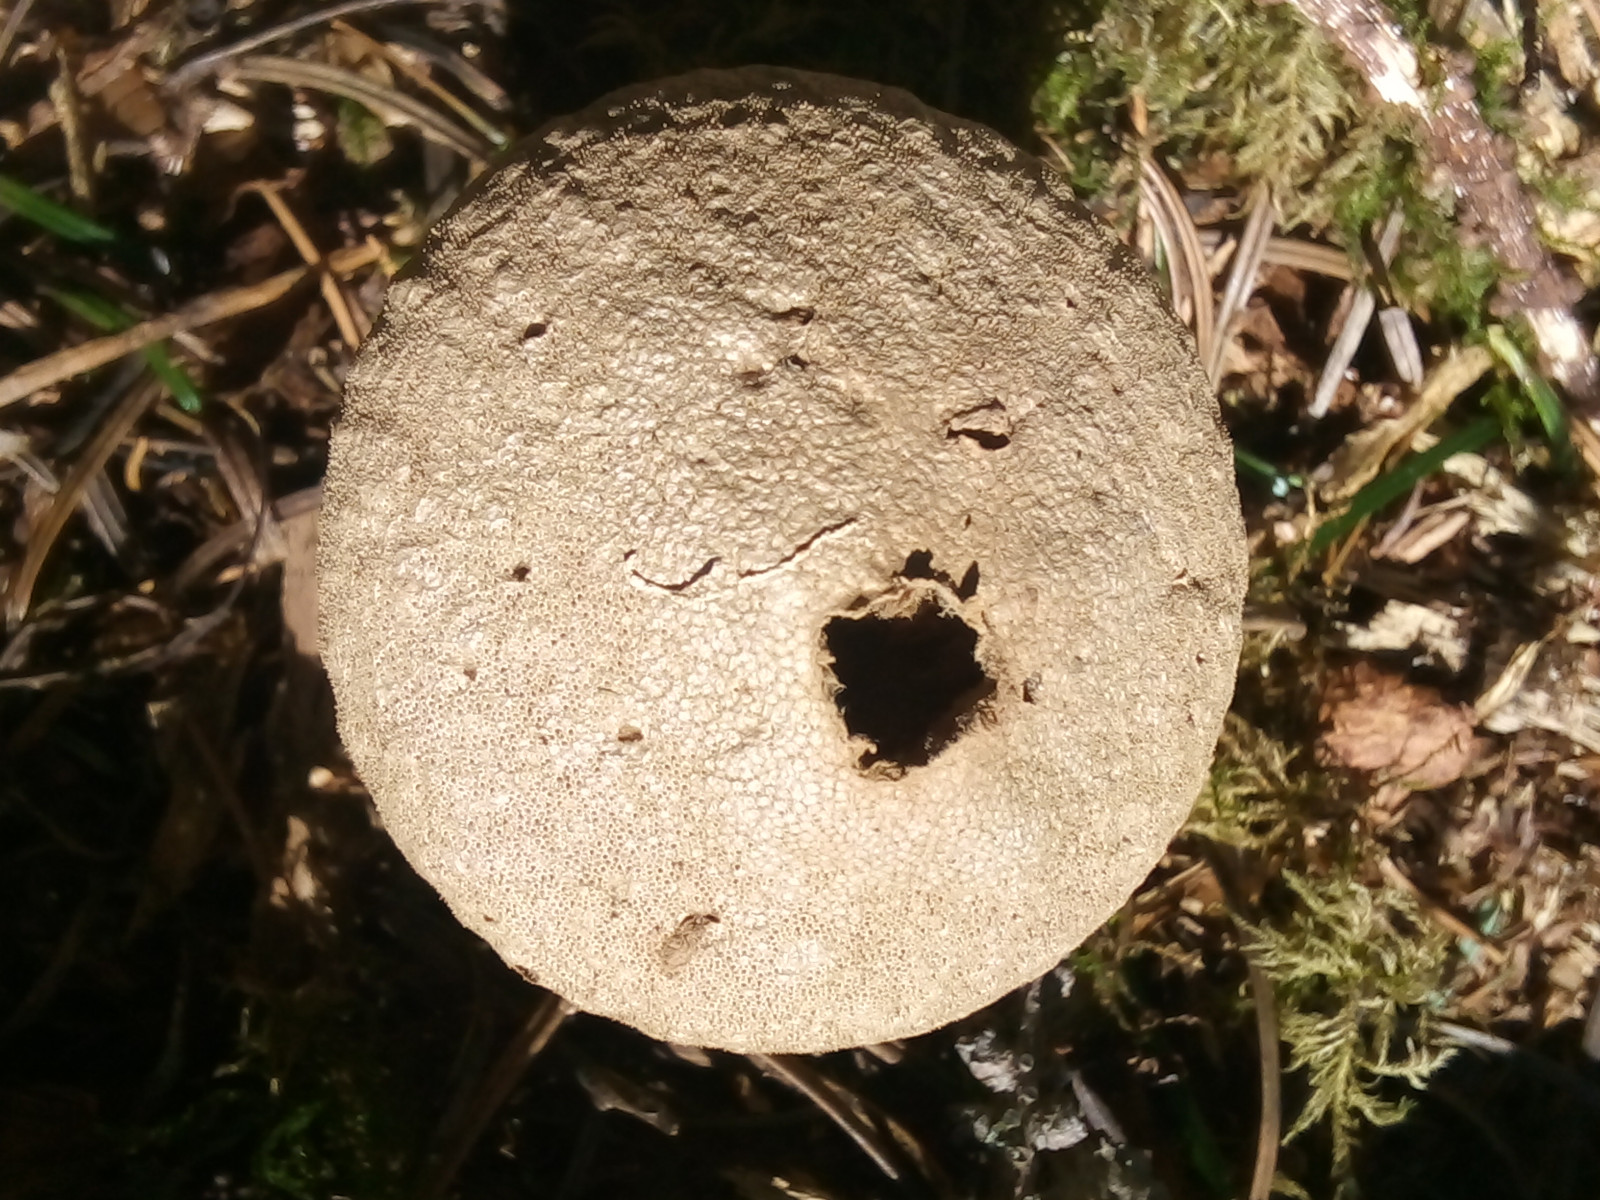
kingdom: Fungi
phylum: Basidiomycota
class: Agaricomycetes
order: Agaricales
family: Lycoperdaceae
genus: Lycoperdon
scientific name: Lycoperdon perlatum
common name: krystal-støvbold
